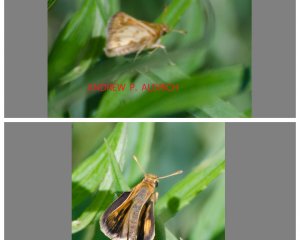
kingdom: Animalia
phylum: Arthropoda
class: Insecta
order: Lepidoptera
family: Hesperiidae
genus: Polites
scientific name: Polites coras
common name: Peck's Skipper
